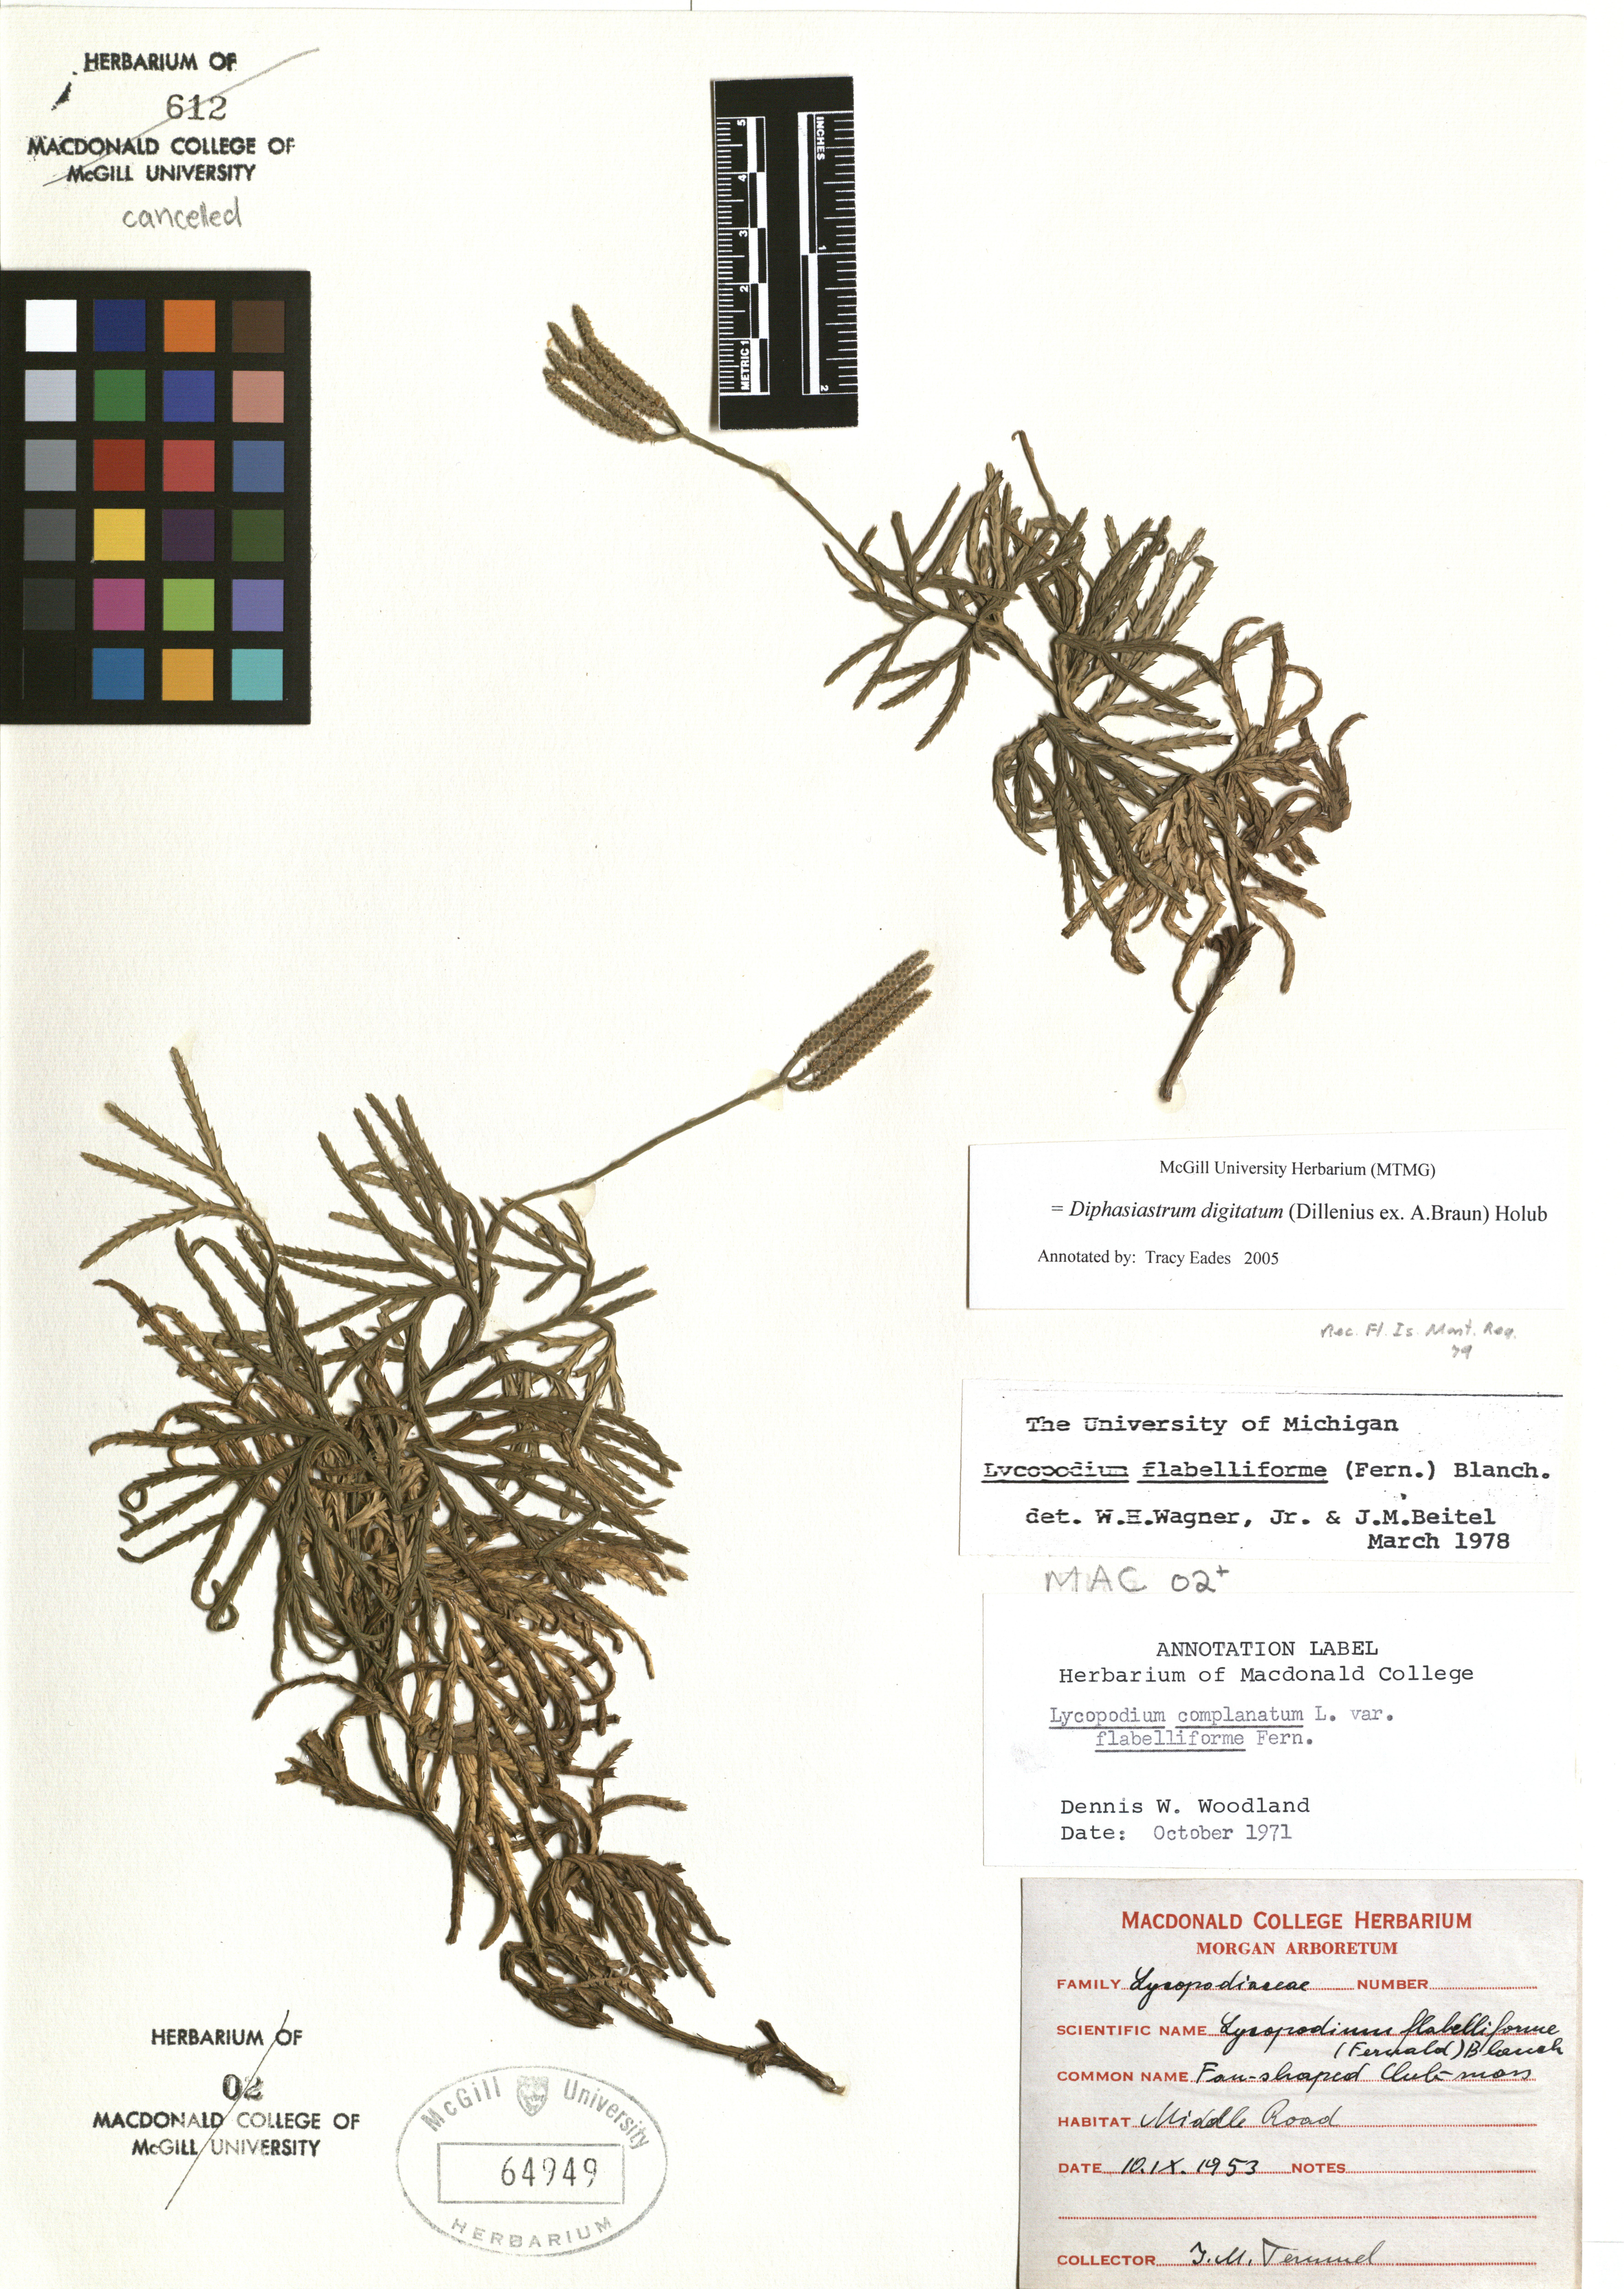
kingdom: Plantae
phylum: Tracheophyta
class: Lycopodiopsida
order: Lycopodiales
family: Lycopodiaceae
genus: Diphasiastrum
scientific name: Diphasiastrum digitatum
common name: Southern running-pine
